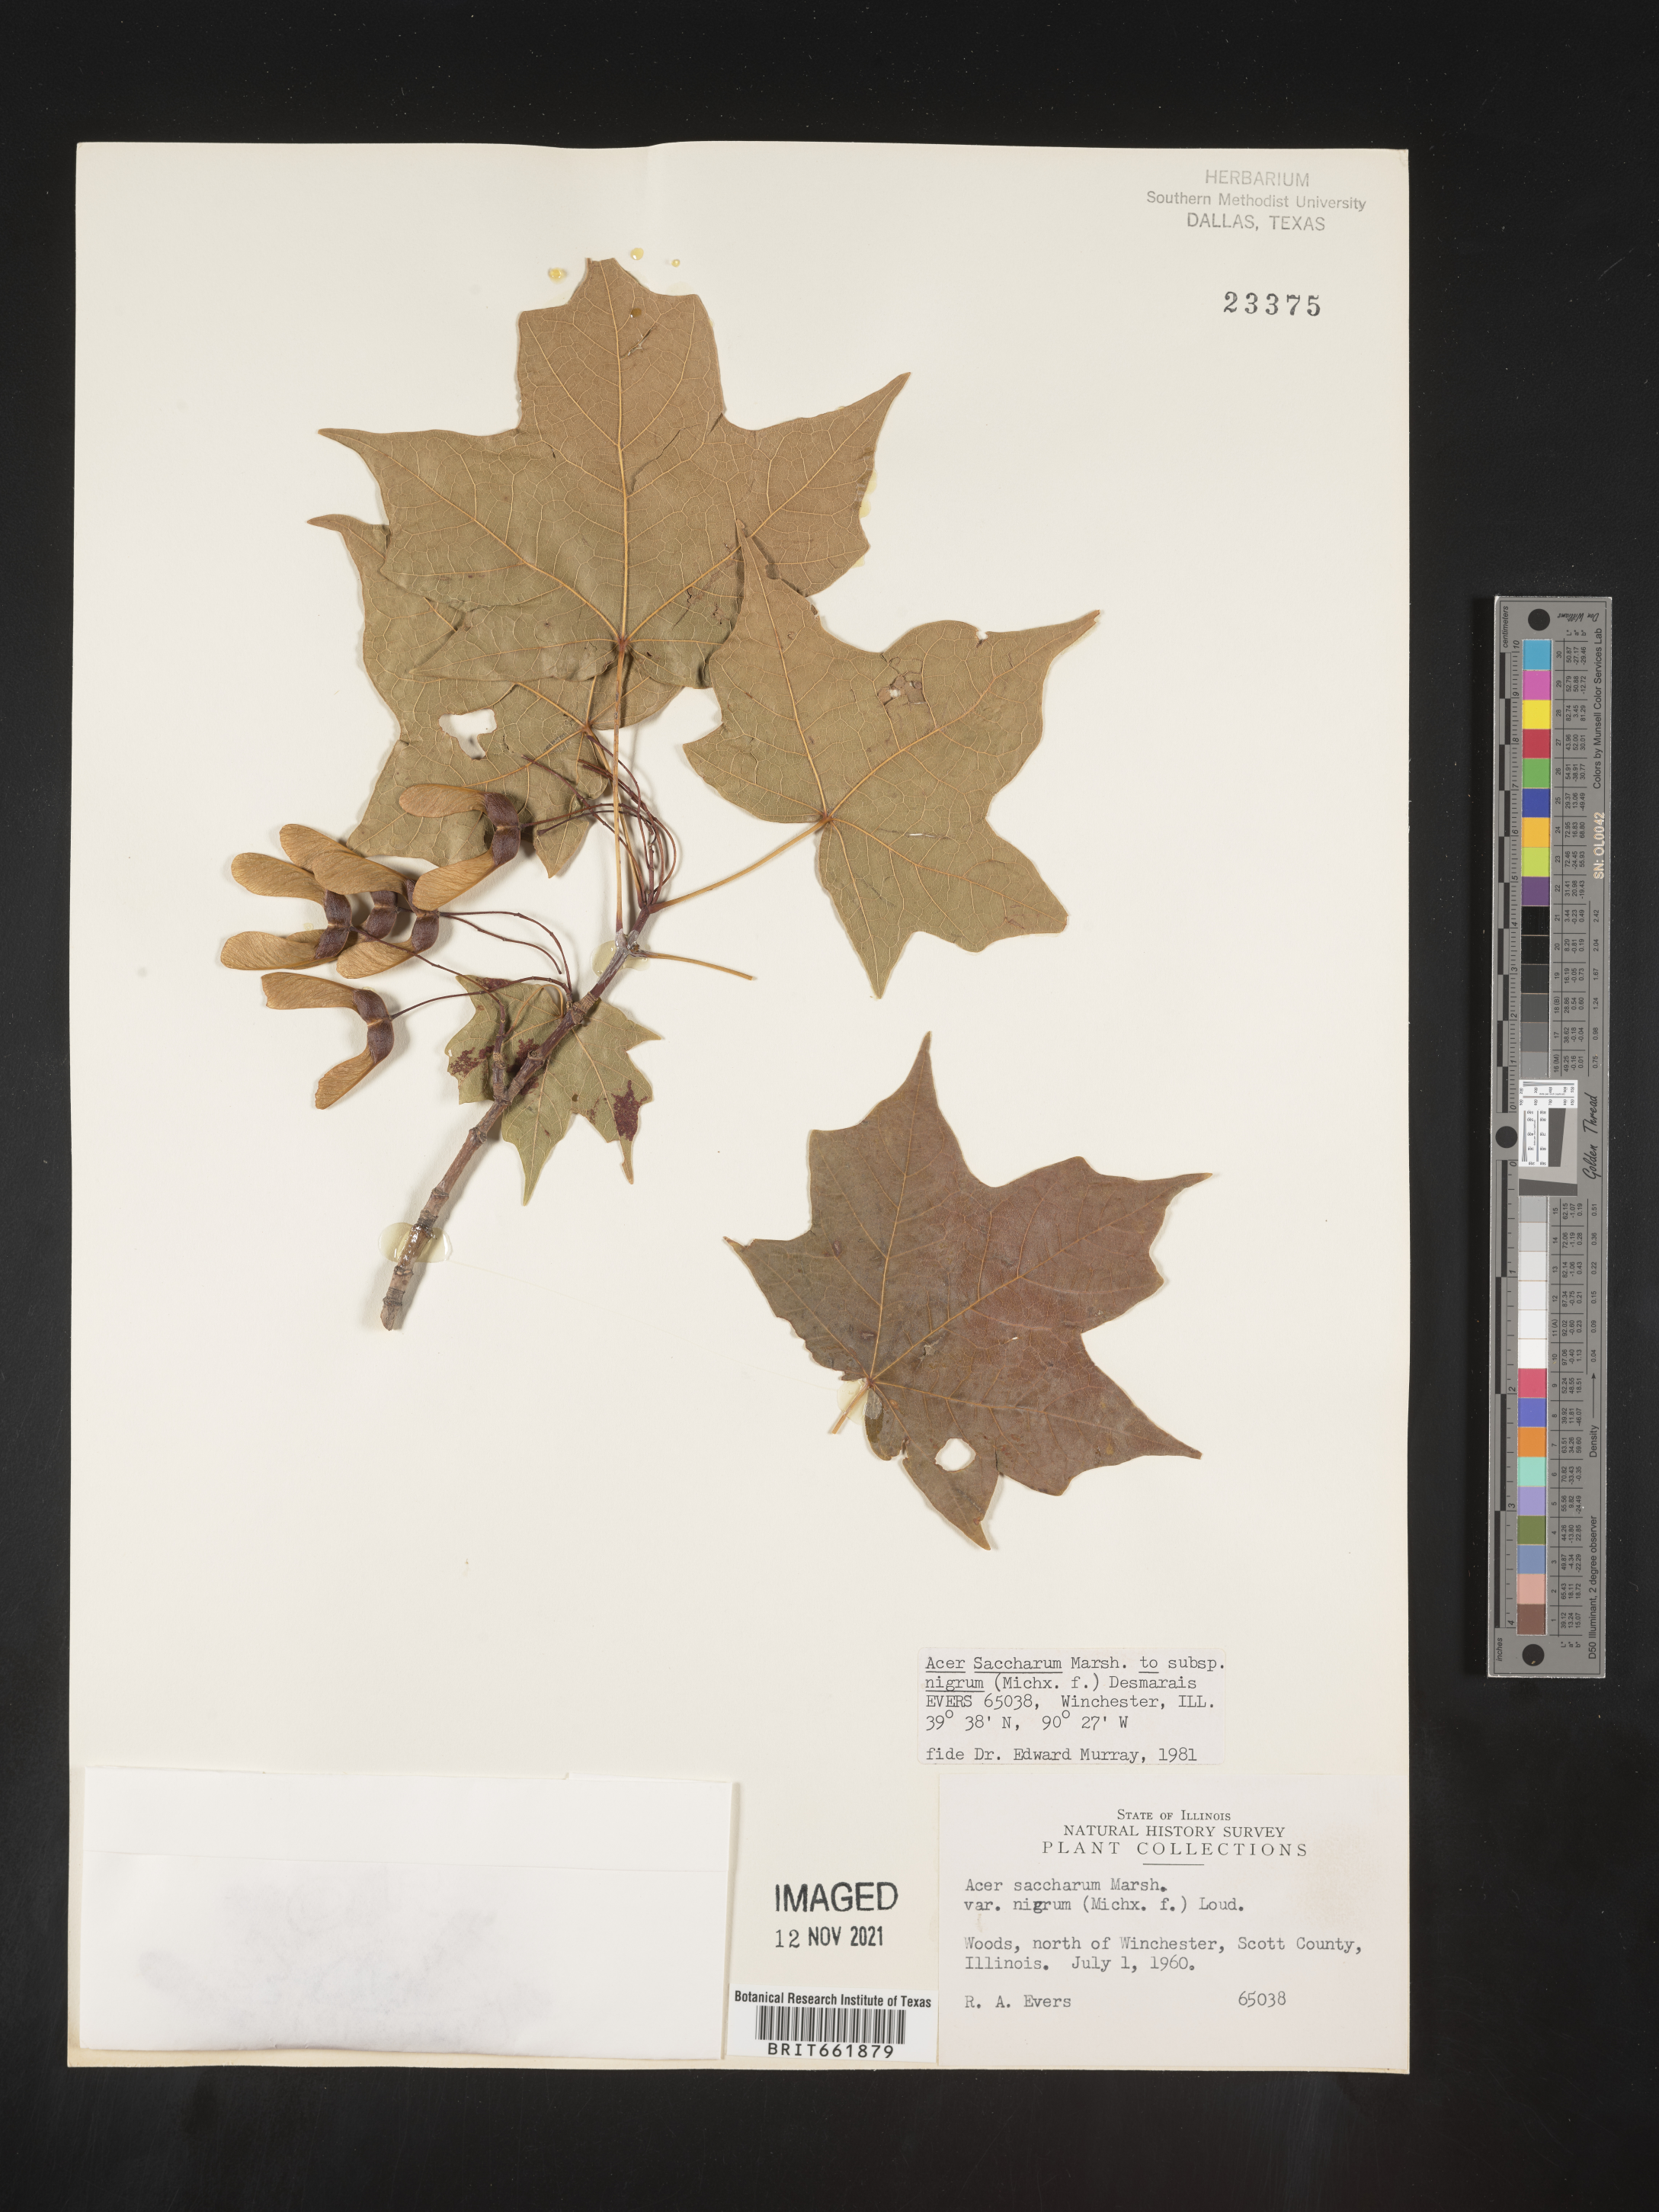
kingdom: Plantae
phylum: Tracheophyta
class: Magnoliopsida
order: Sapindales
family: Sapindaceae
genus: Acer
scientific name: Acer nigrum
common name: Black maple
